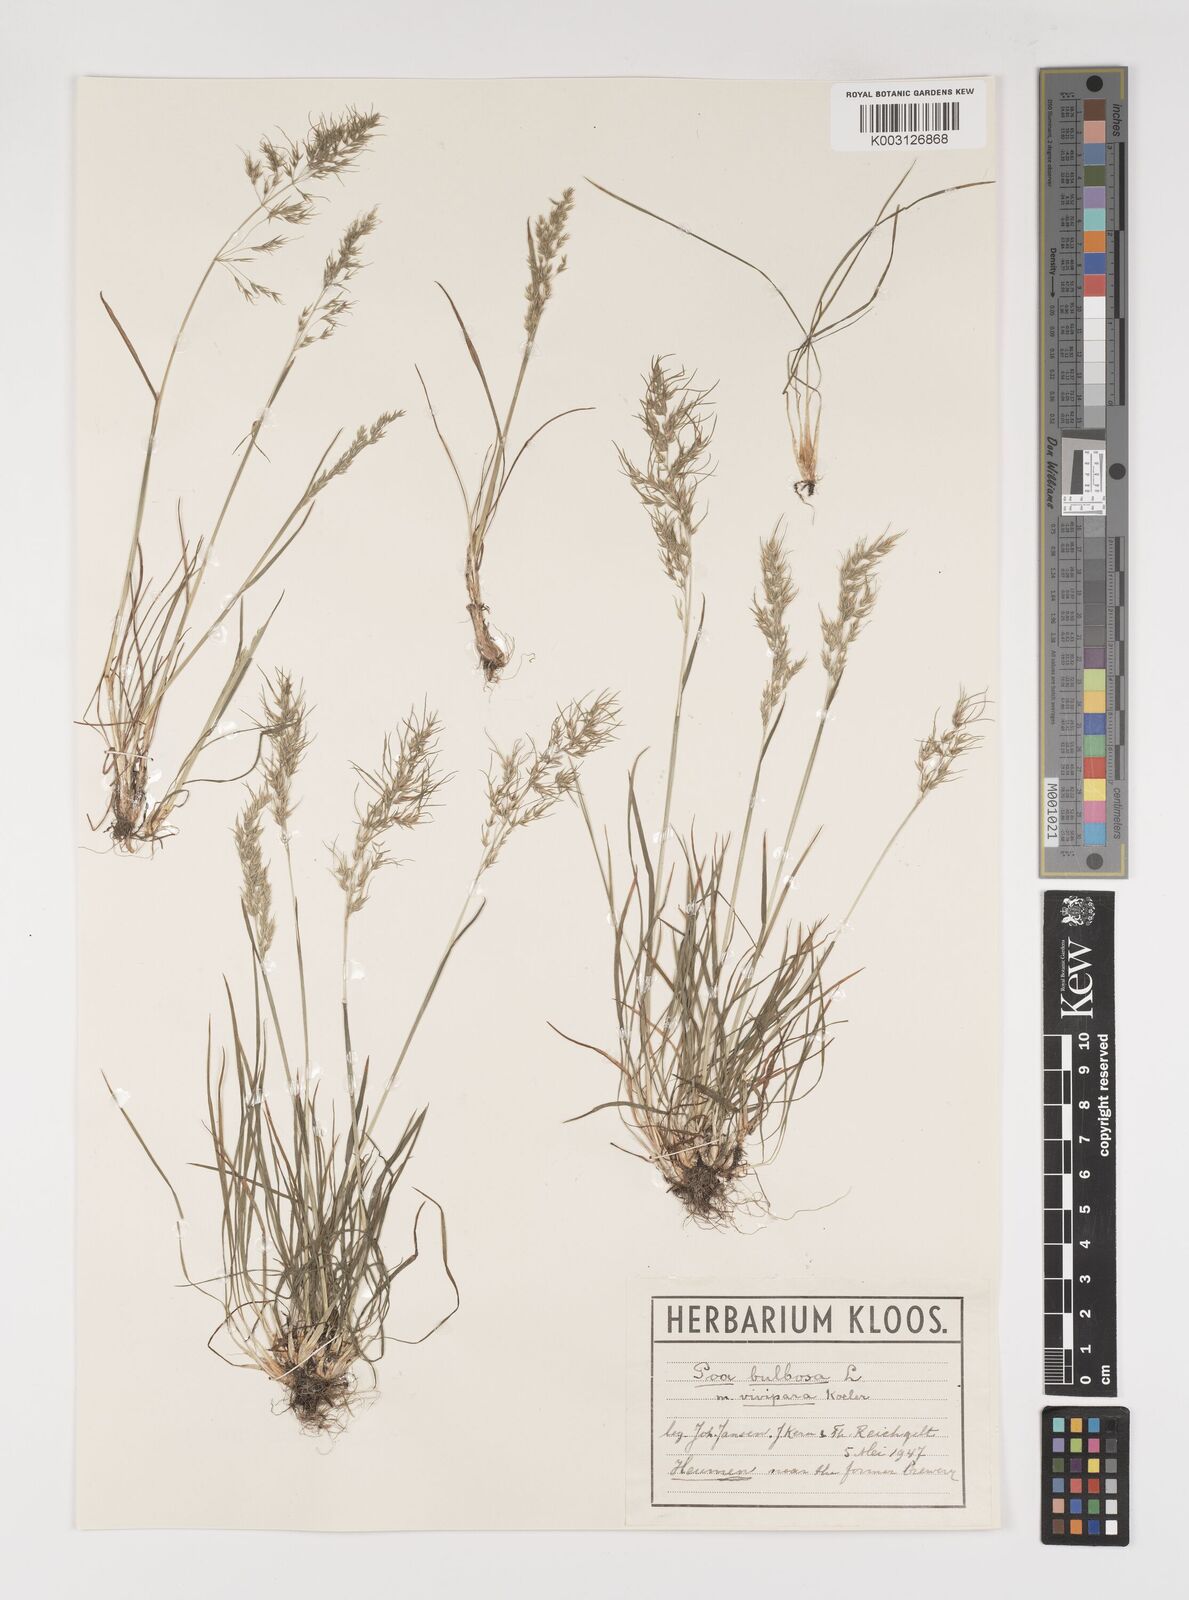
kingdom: Plantae
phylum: Tracheophyta
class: Liliopsida
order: Poales
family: Poaceae
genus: Poa
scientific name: Poa bulbosa
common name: Bulbous bluegrass
